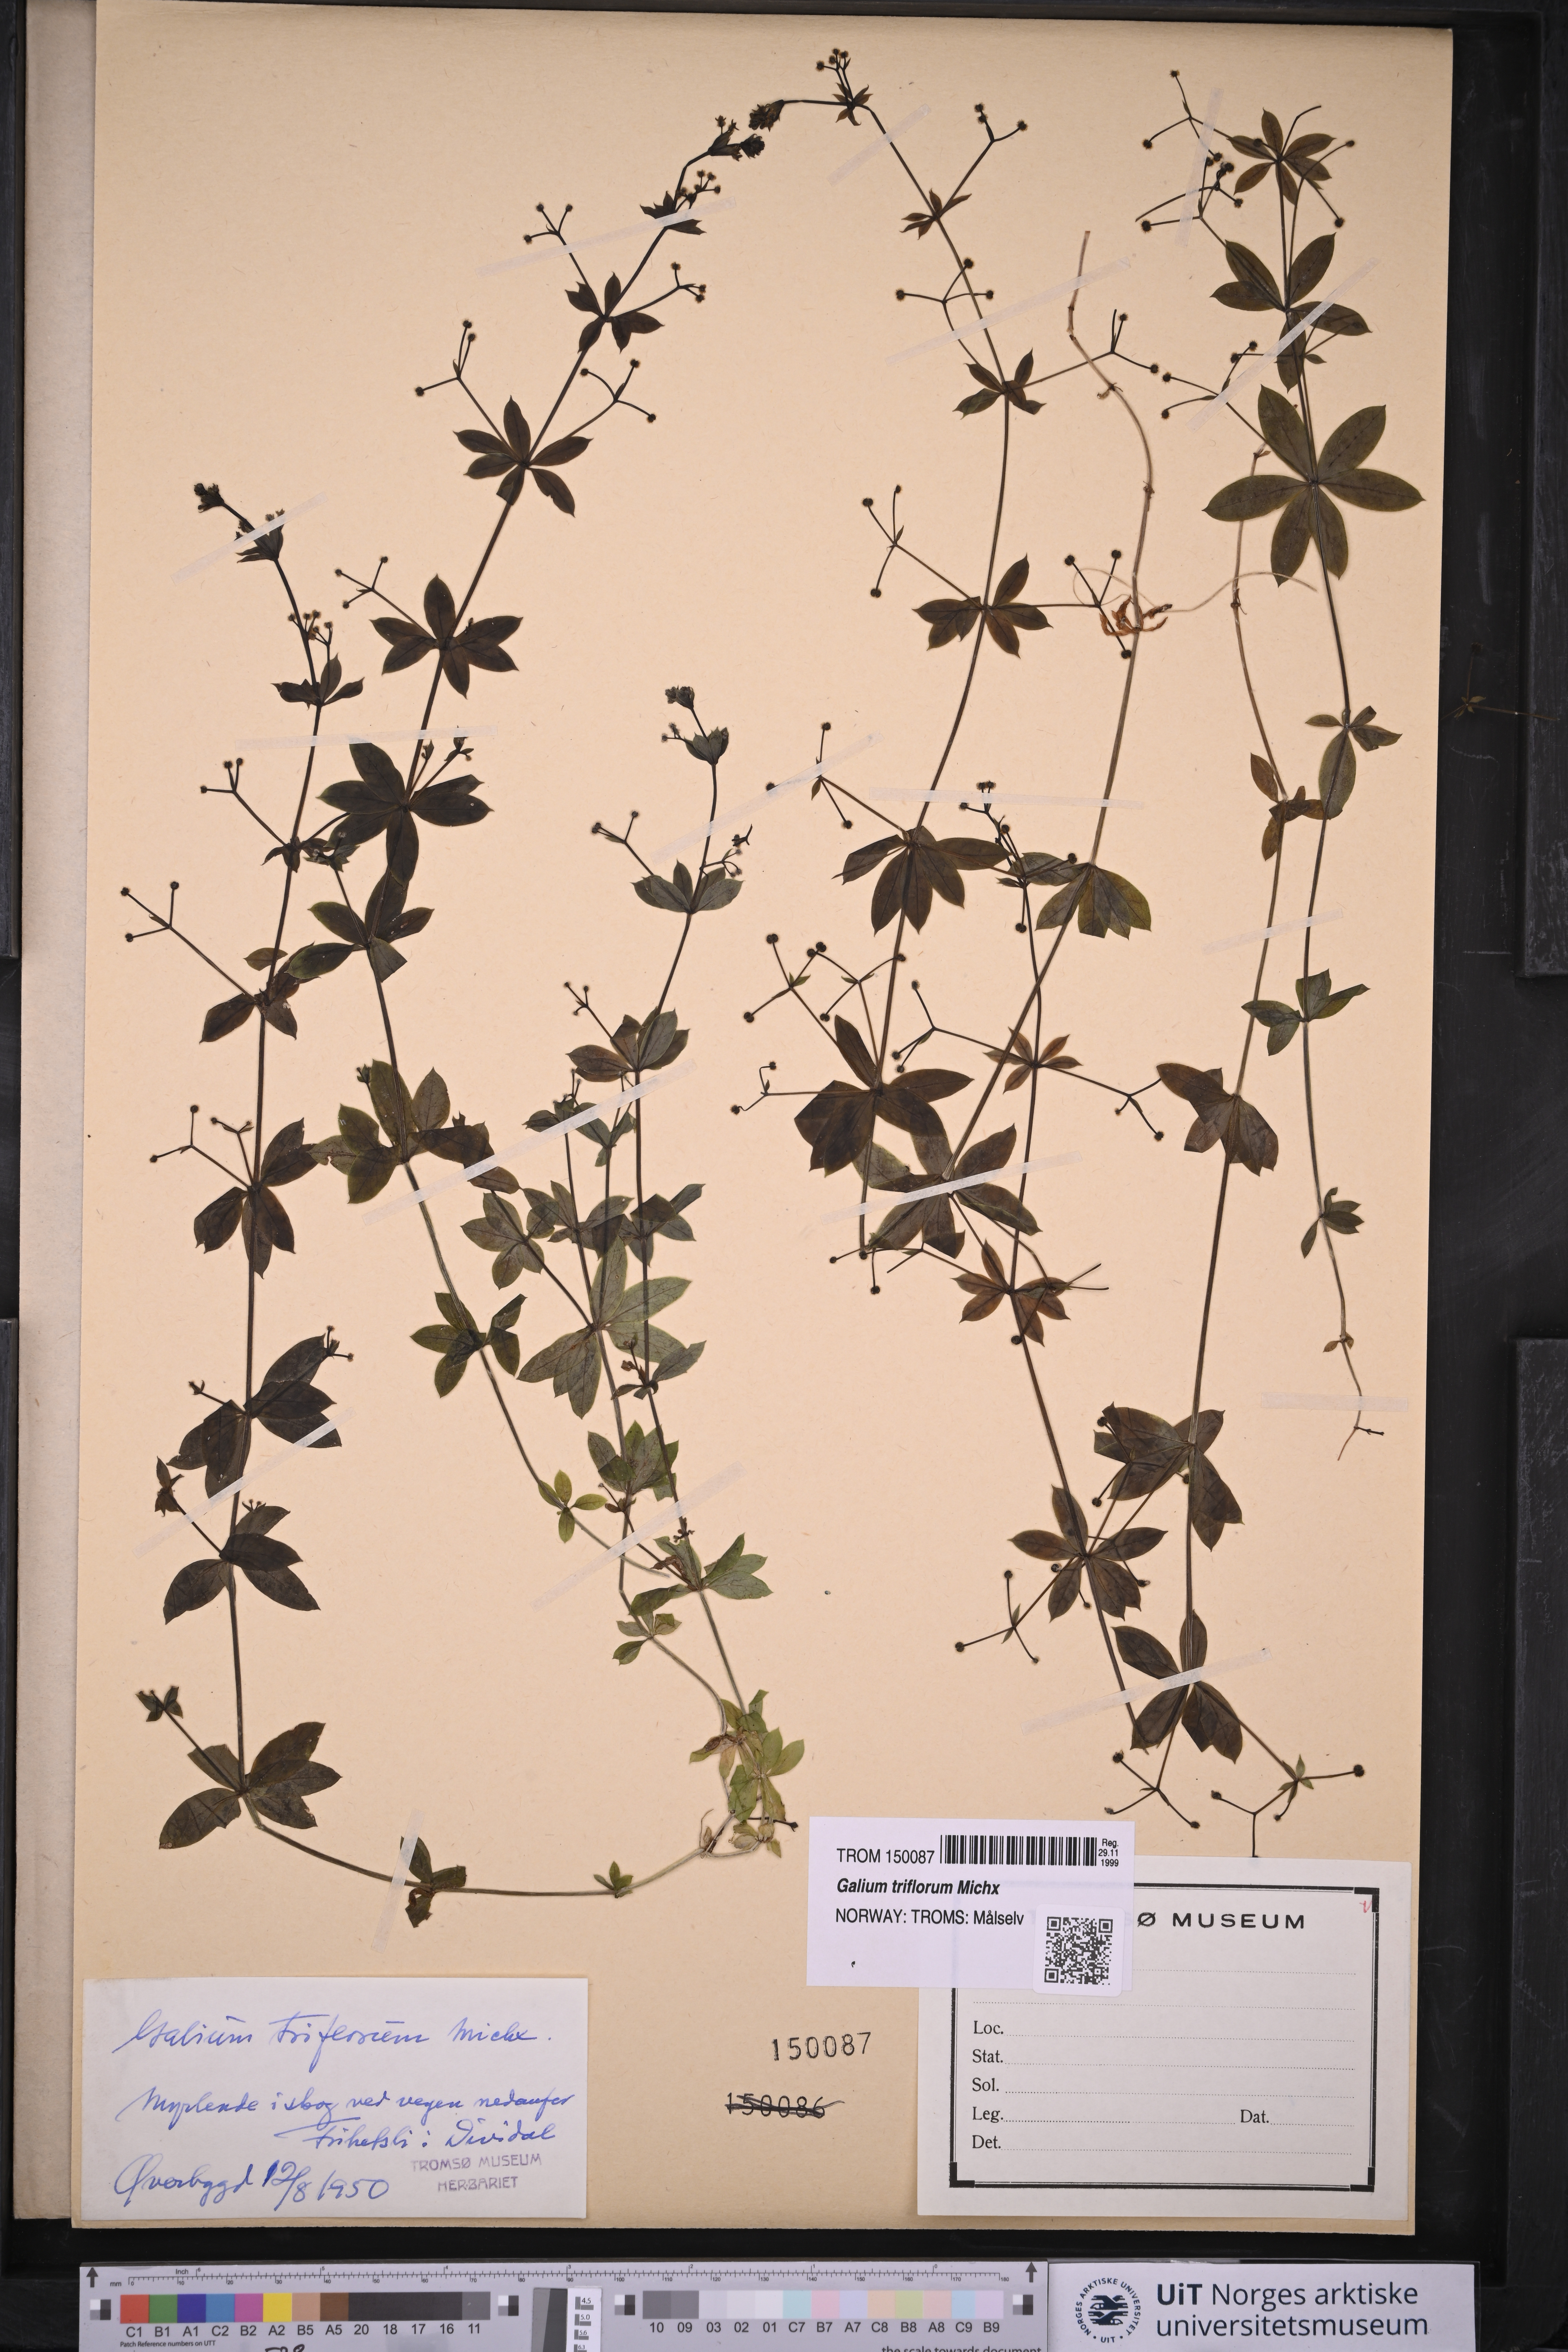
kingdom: Plantae
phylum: Tracheophyta
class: Magnoliopsida
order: Gentianales
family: Rubiaceae
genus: Galium
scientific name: Galium triflorum
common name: Fragrant bedstraw
